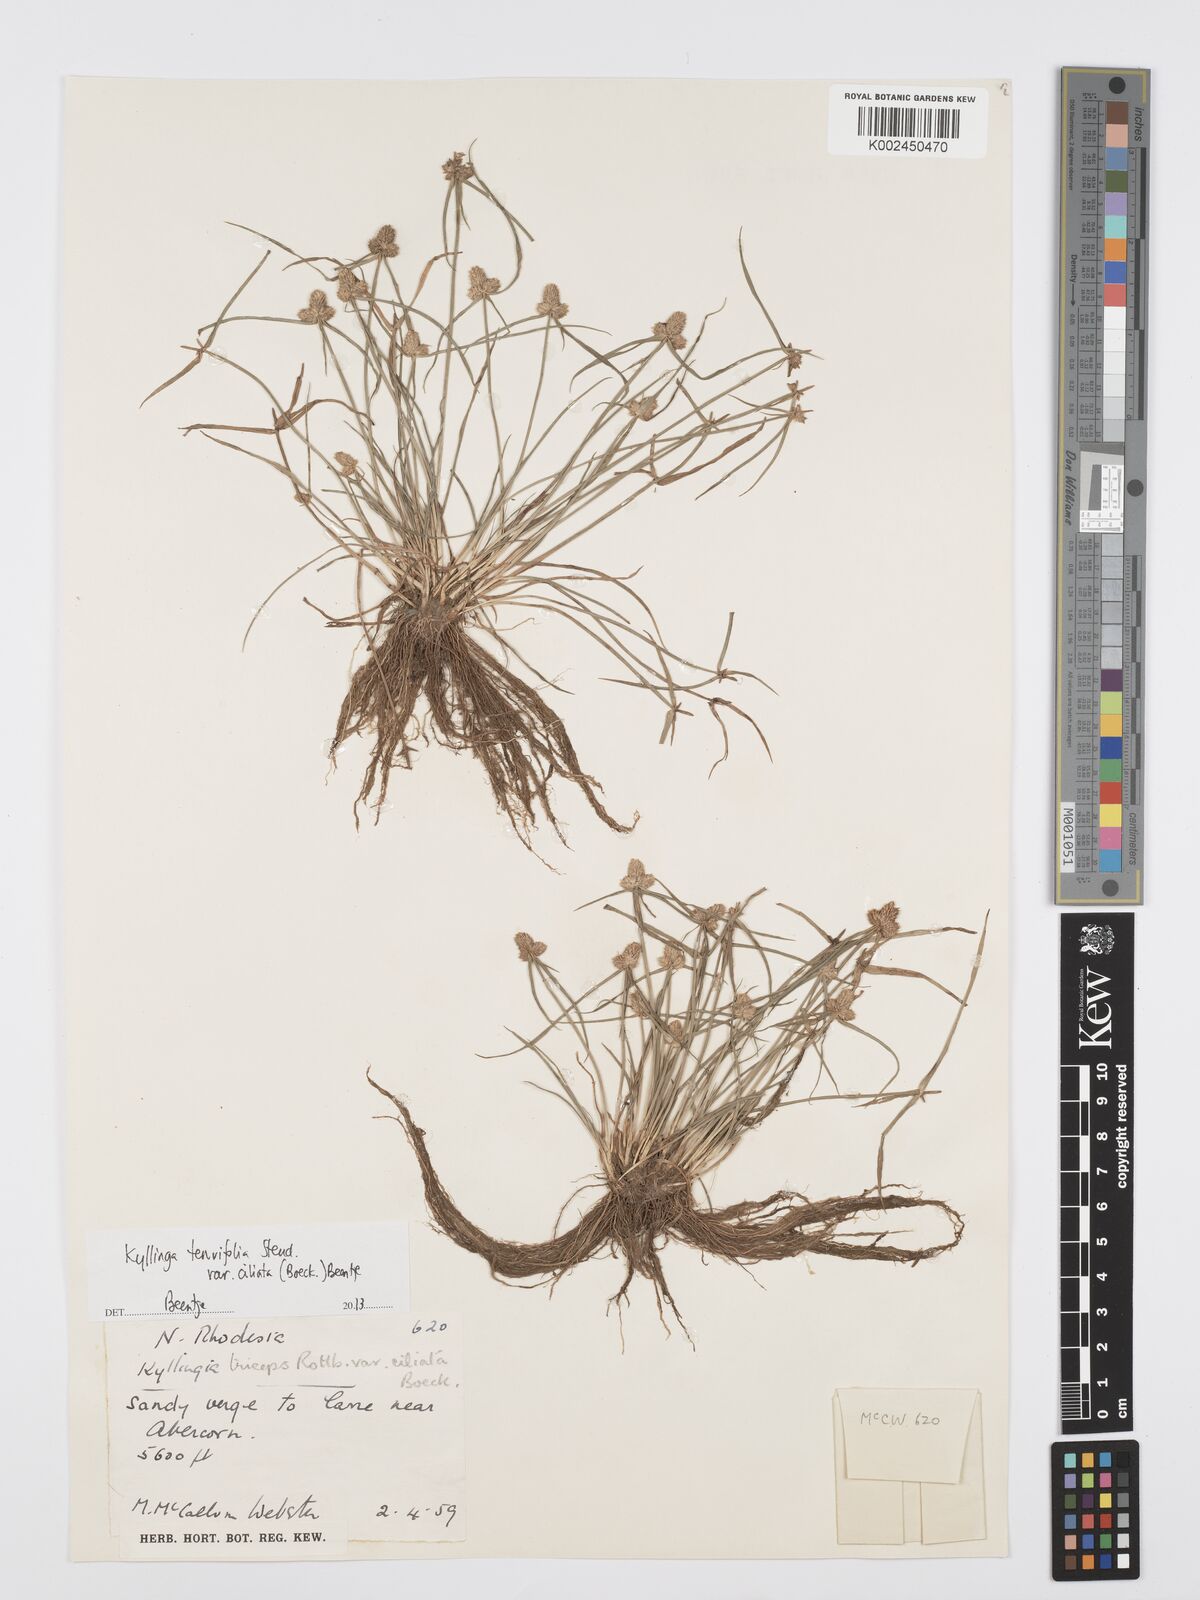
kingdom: Plantae
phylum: Tracheophyta
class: Liliopsida
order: Poales
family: Cyperaceae
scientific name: Cyperaceae
